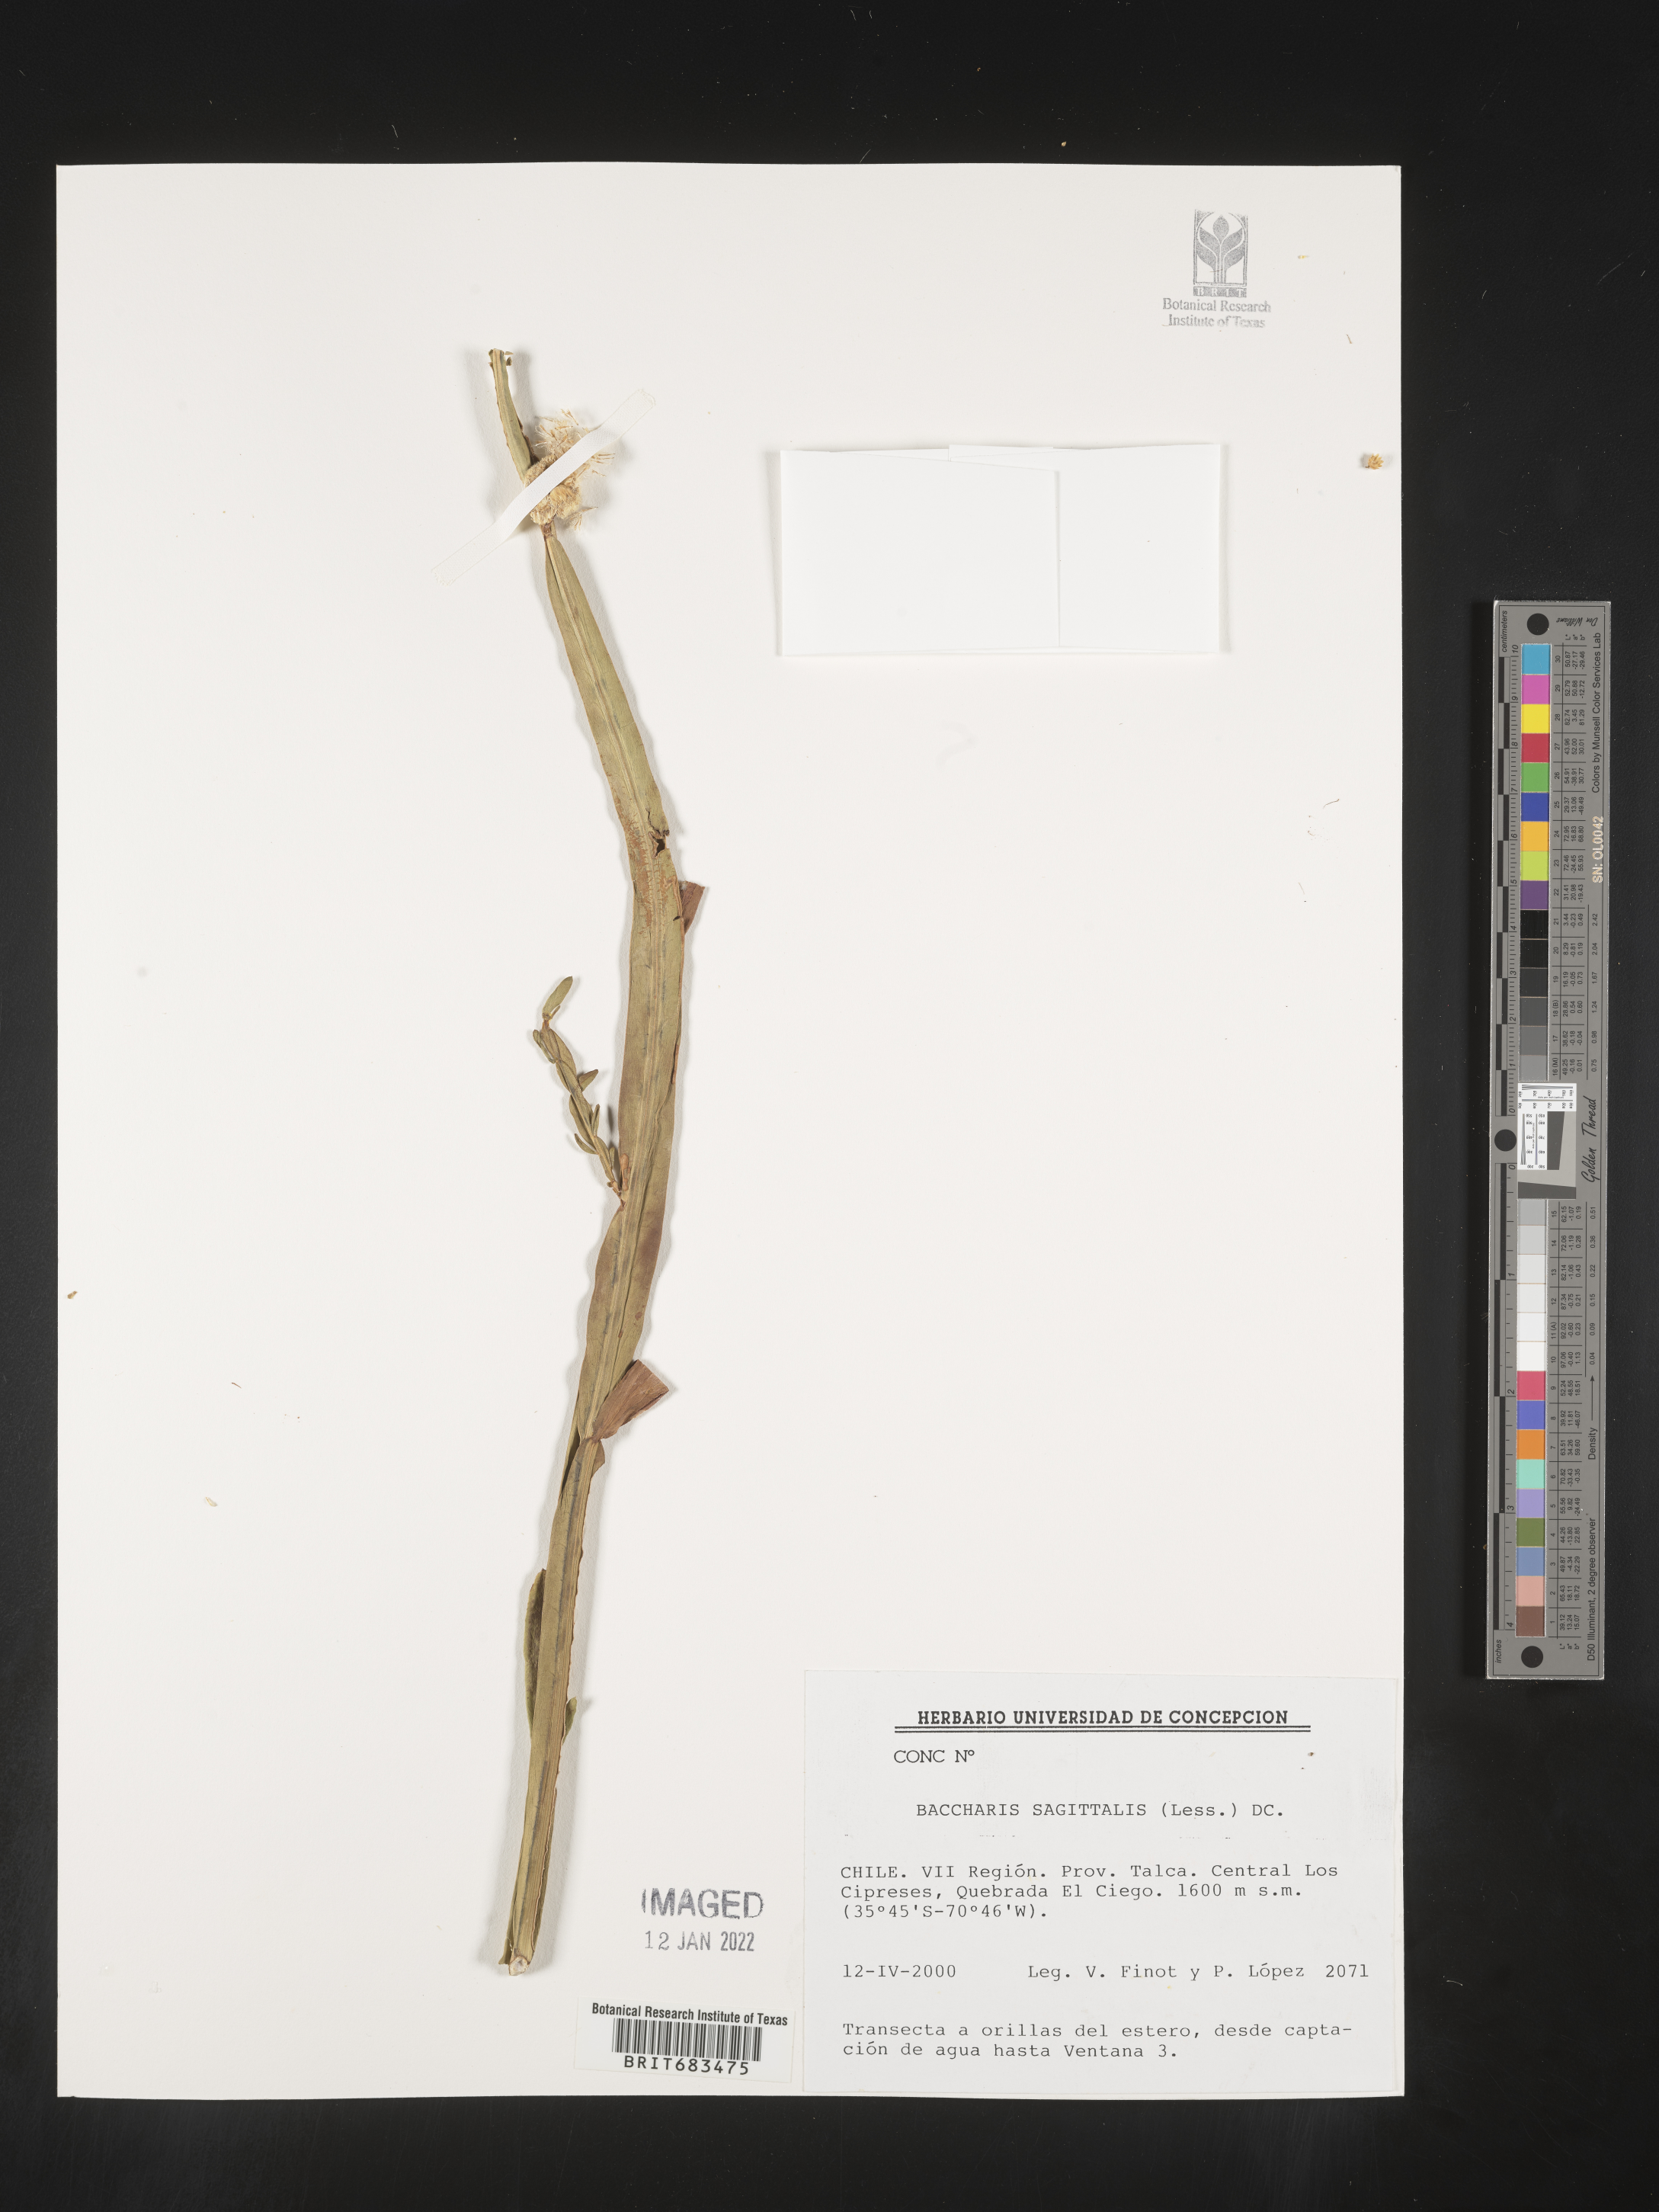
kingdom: Plantae
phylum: Tracheophyta
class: Magnoliopsida
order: Asterales
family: Asteraceae
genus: Baccharis
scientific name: Baccharis
